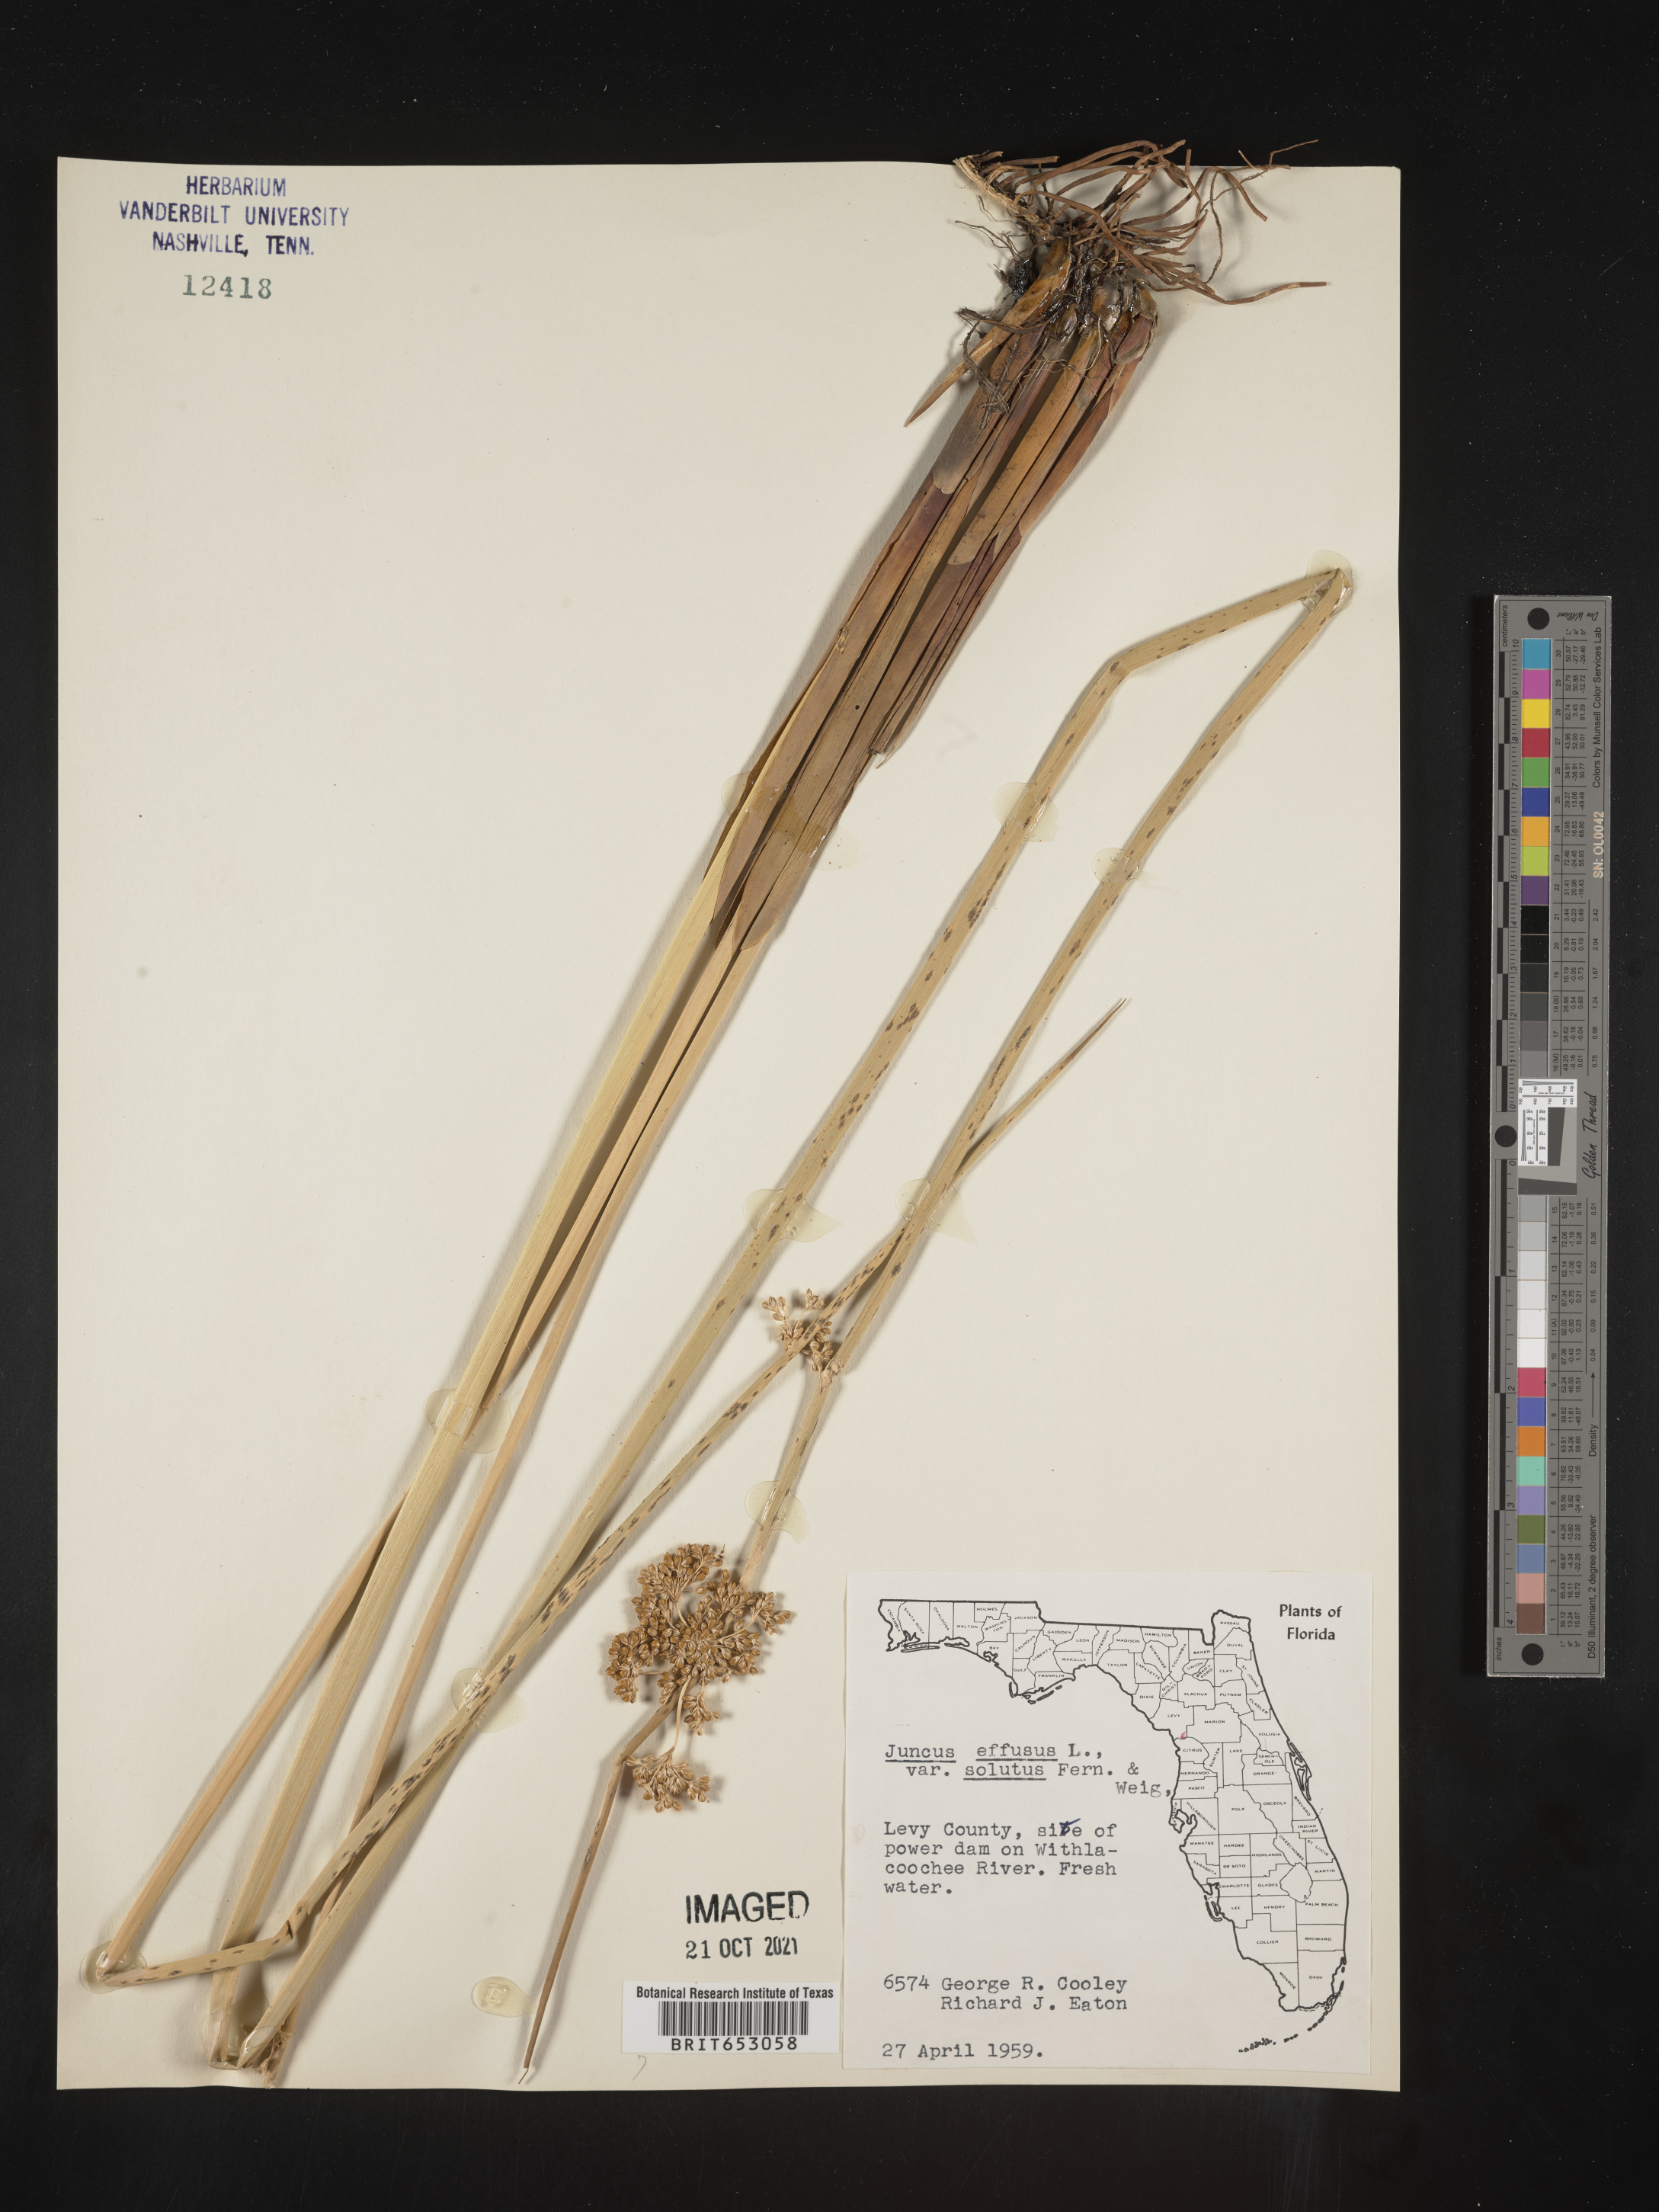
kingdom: Plantae
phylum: Tracheophyta
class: Liliopsida
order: Poales
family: Juncaceae
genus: Juncus
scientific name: Juncus effusus
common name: Soft rush
